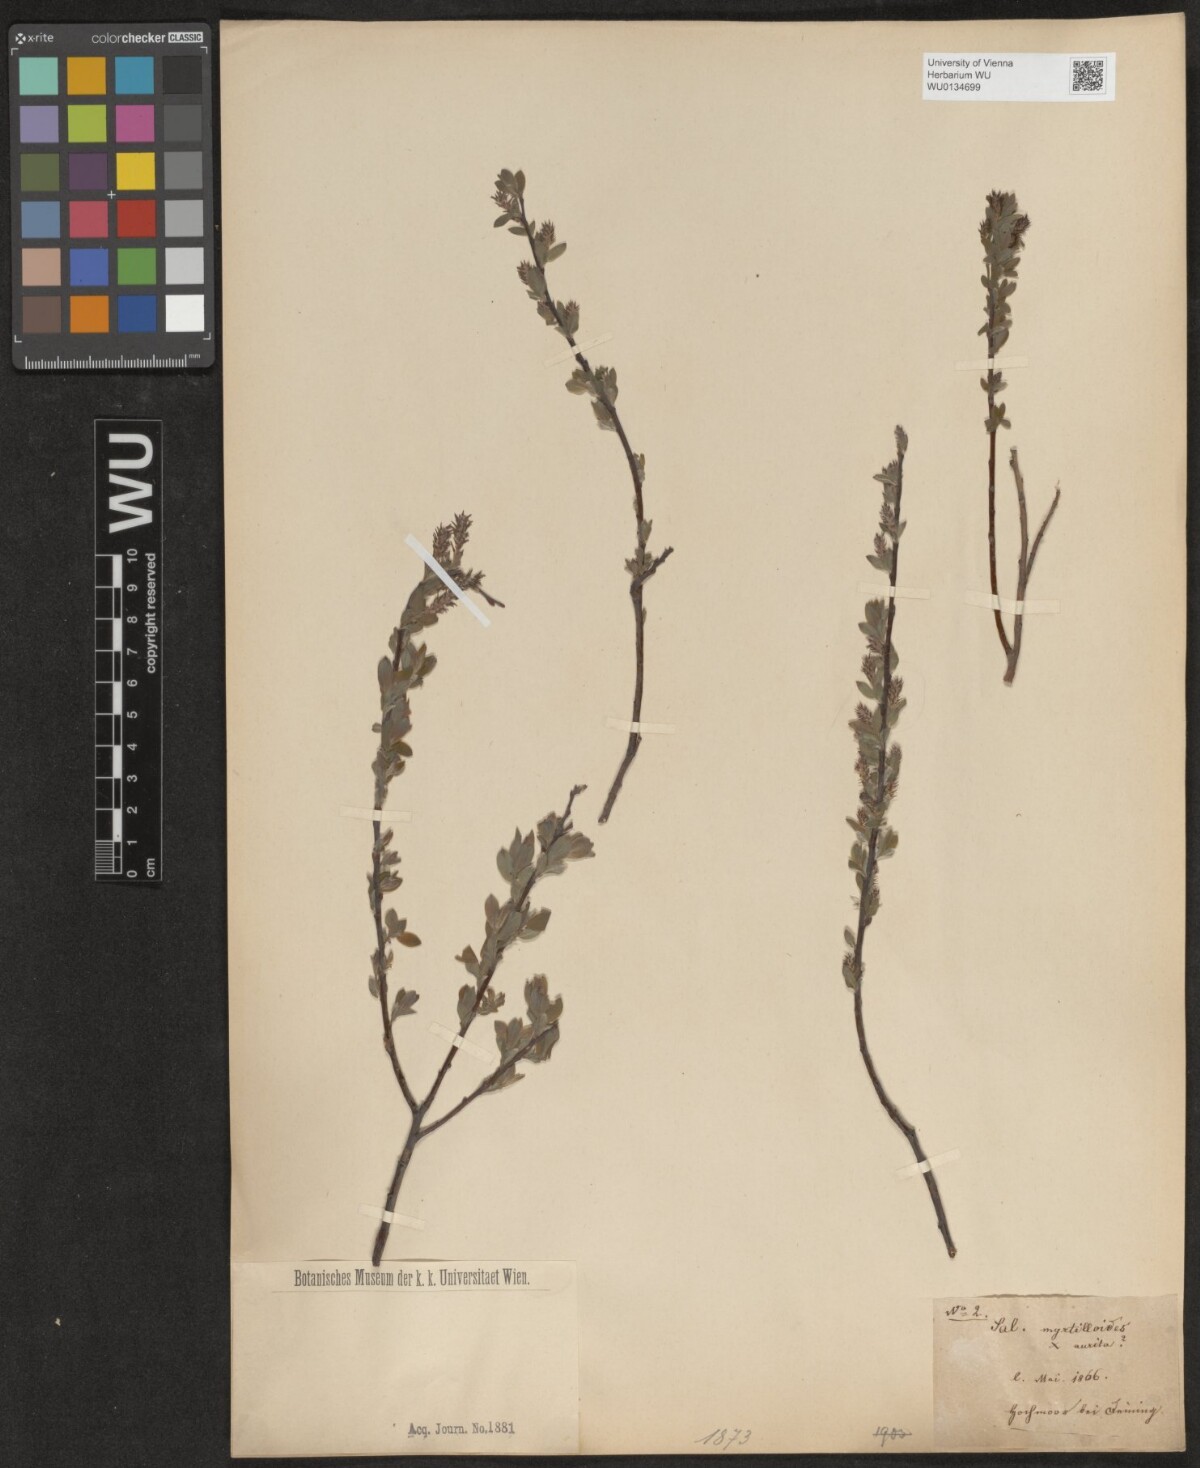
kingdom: Plantae
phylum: Tracheophyta
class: Magnoliopsida
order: Malpighiales
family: Salicaceae
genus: Salix
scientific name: Salix
